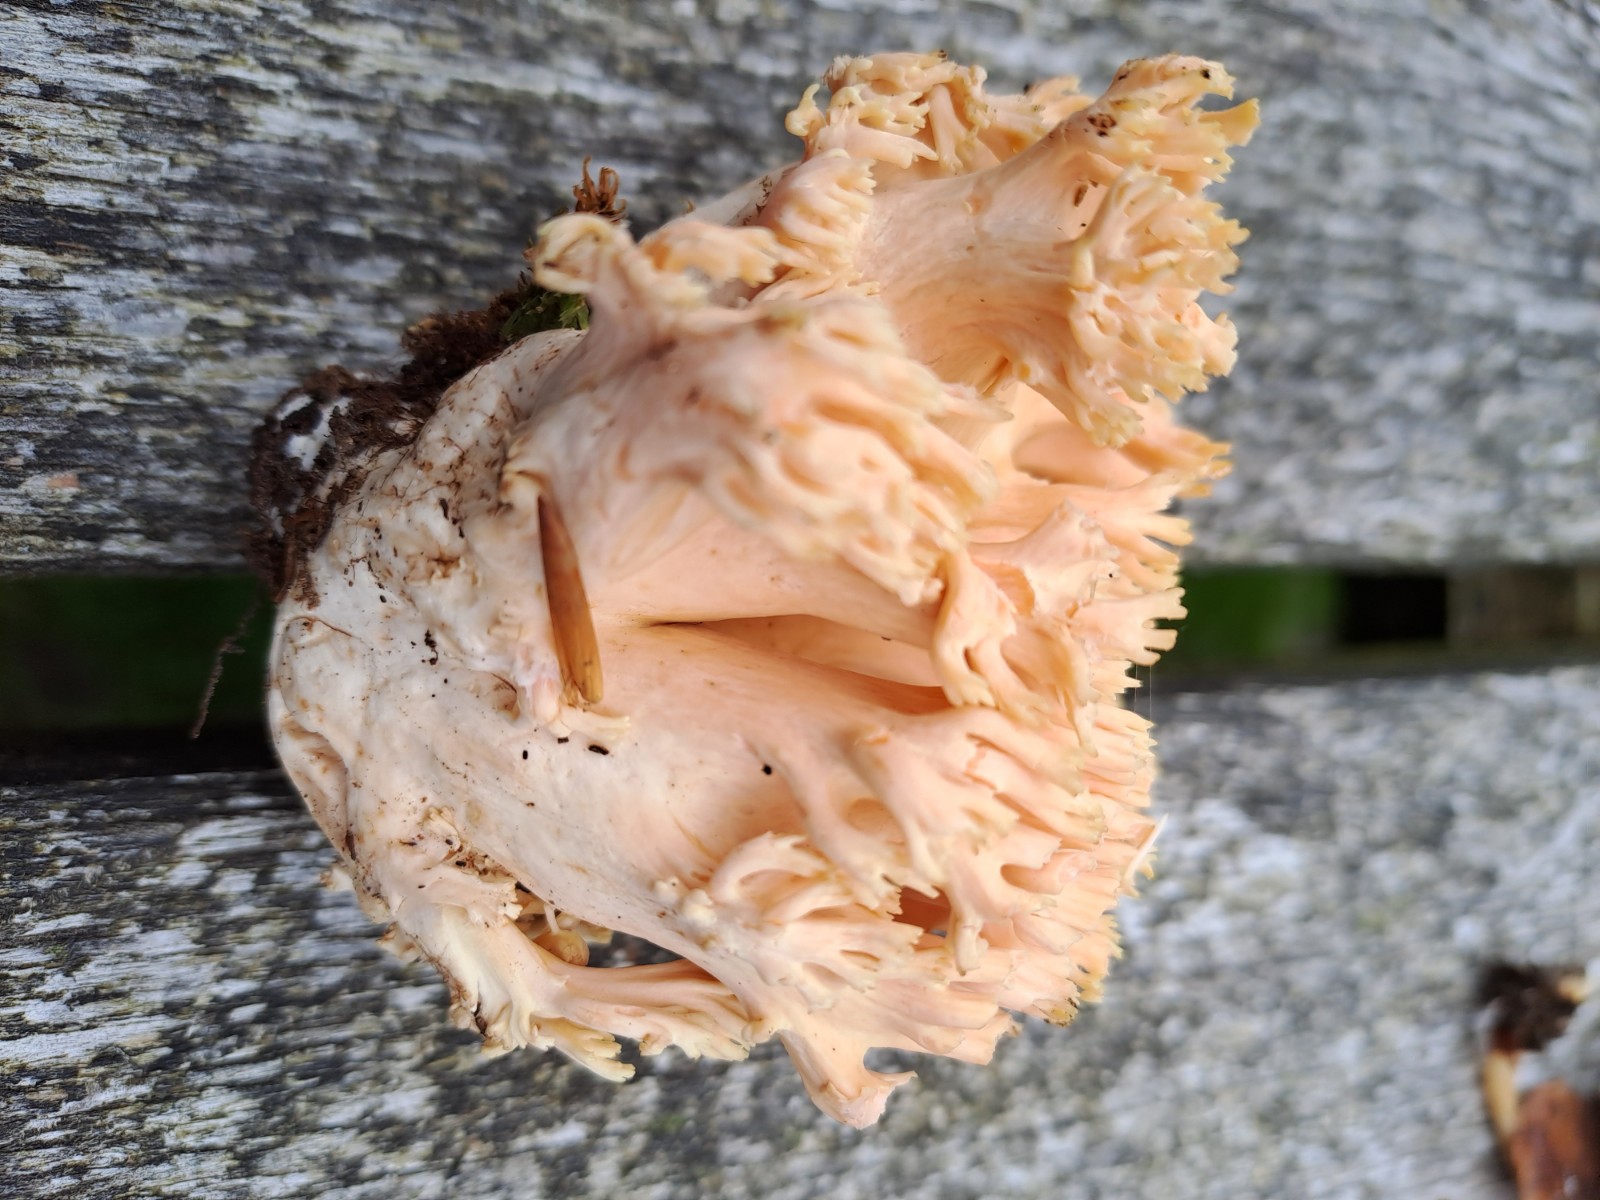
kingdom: Fungi
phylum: Basidiomycota
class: Agaricomycetes
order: Gomphales
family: Gomphaceae
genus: Ramaria
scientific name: Ramaria
